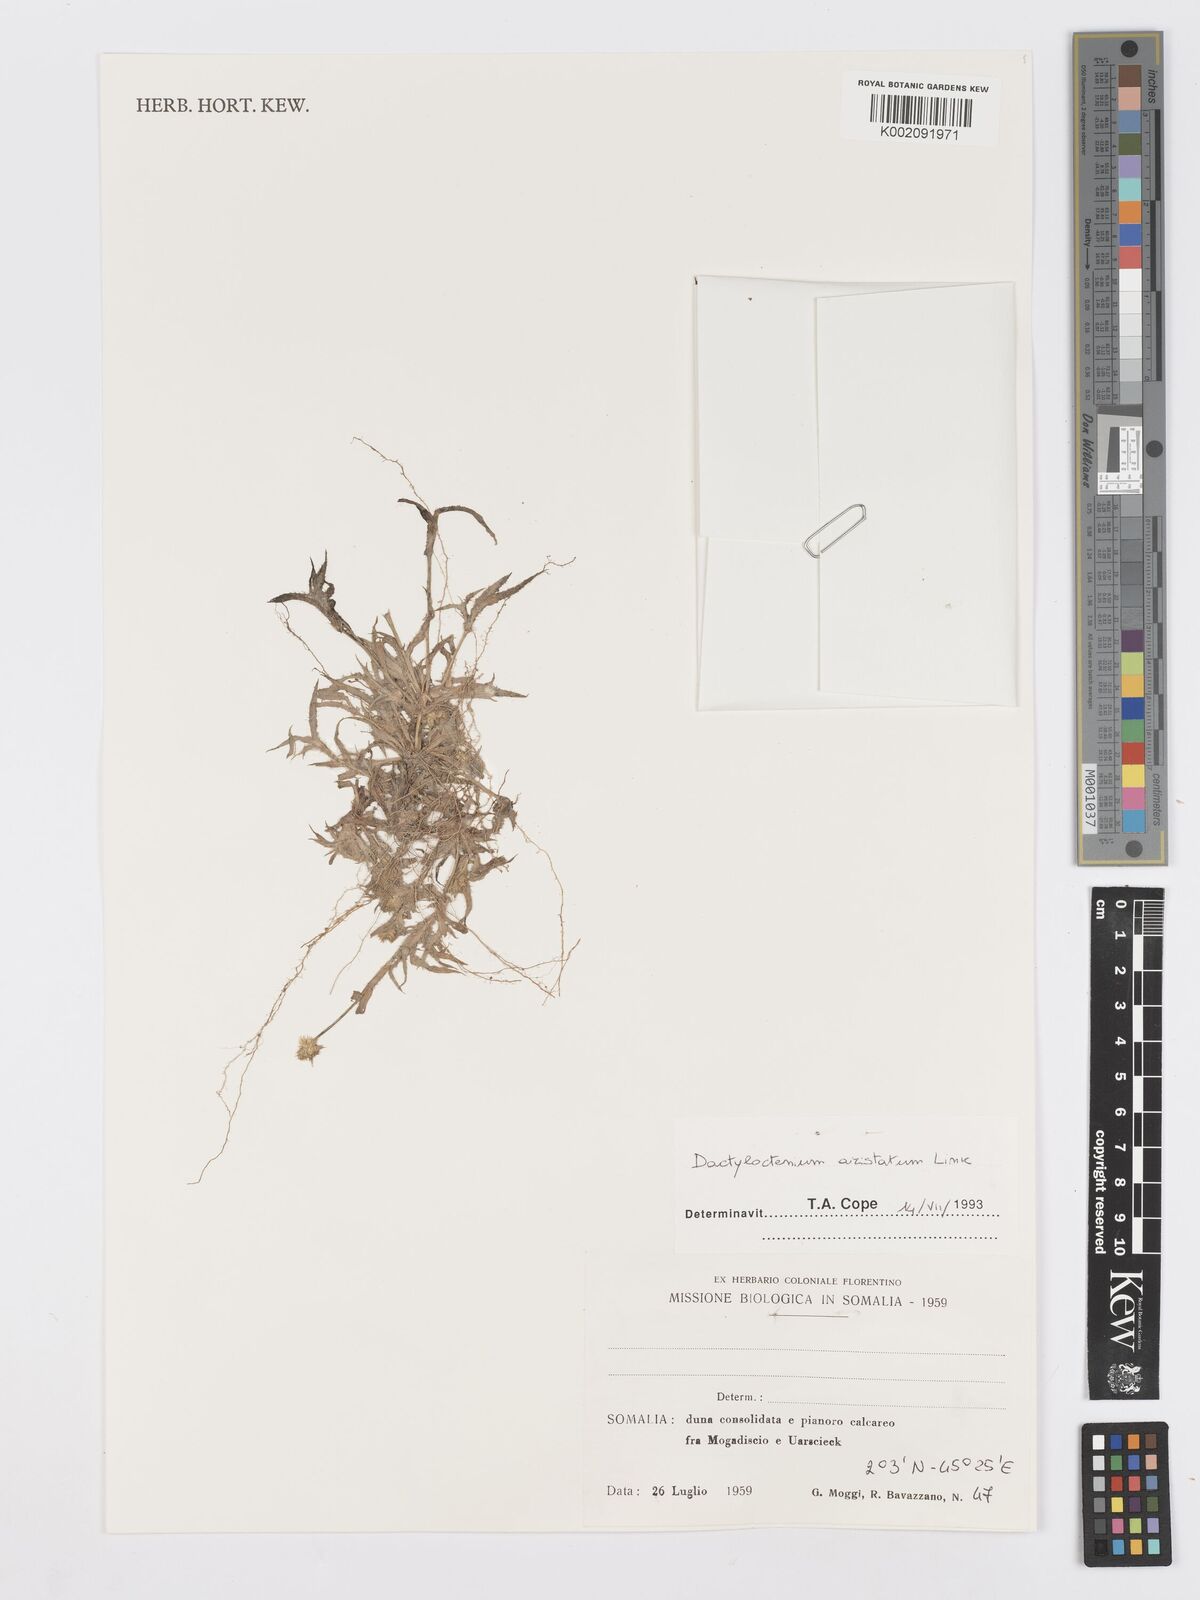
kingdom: Plantae
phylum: Tracheophyta
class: Liliopsida
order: Poales
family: Poaceae
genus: Dactyloctenium
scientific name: Dactyloctenium aristatum
